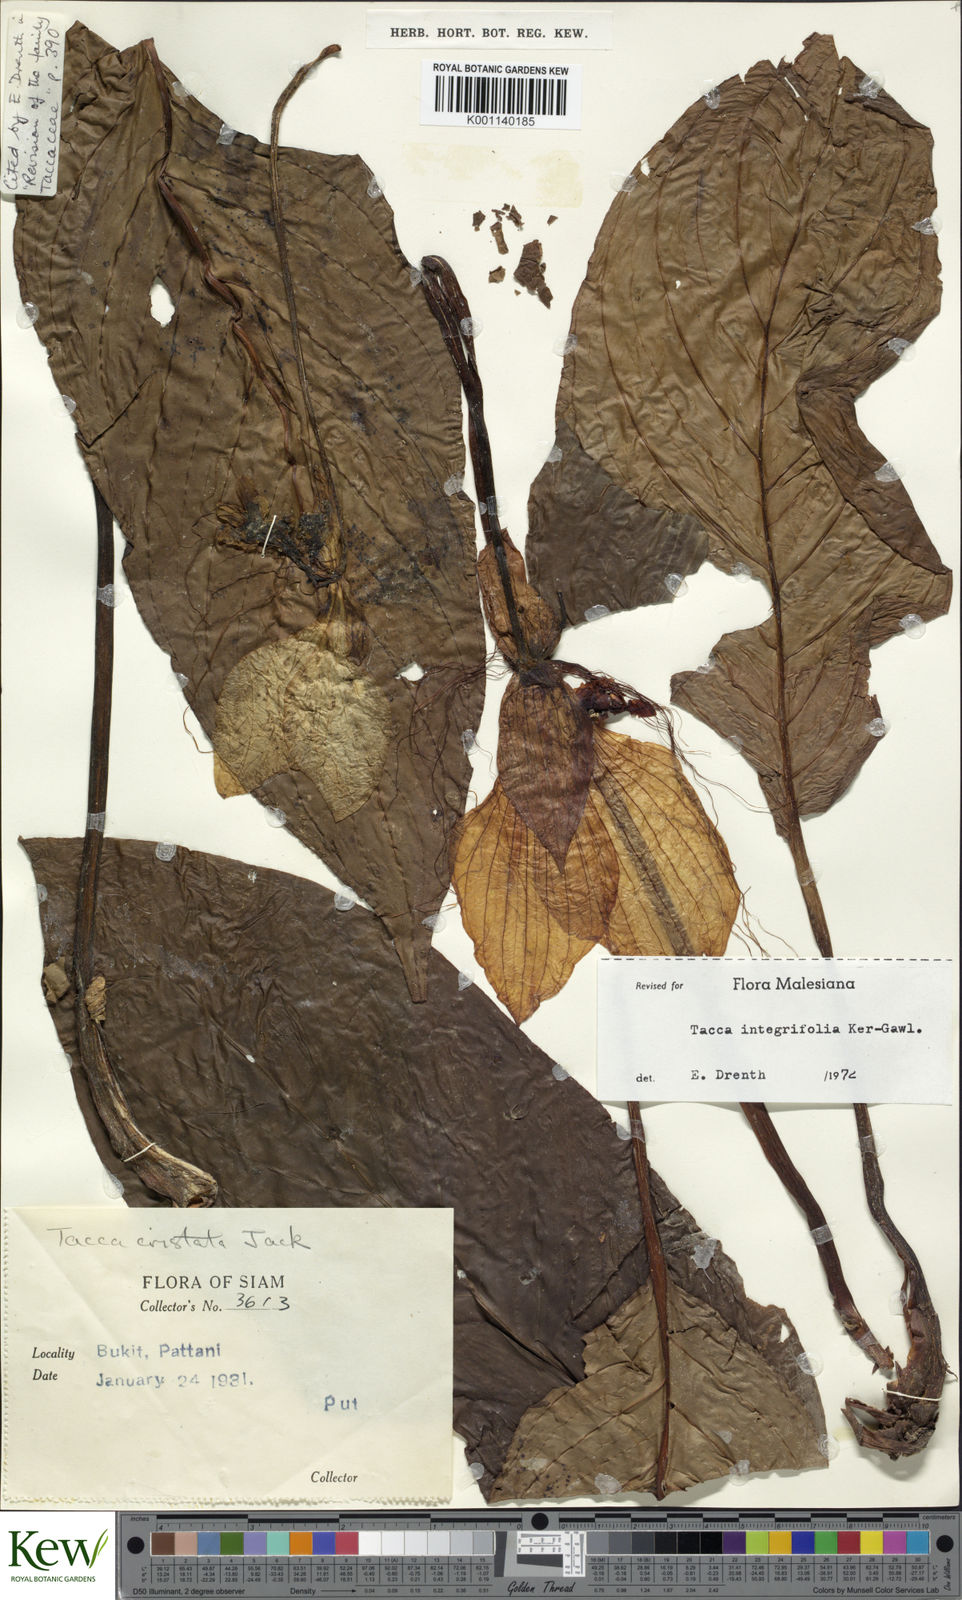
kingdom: Plantae
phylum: Tracheophyta
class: Liliopsida
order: Dioscoreales
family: Dioscoreaceae
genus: Tacca
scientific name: Tacca integrifolia
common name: Batplant
